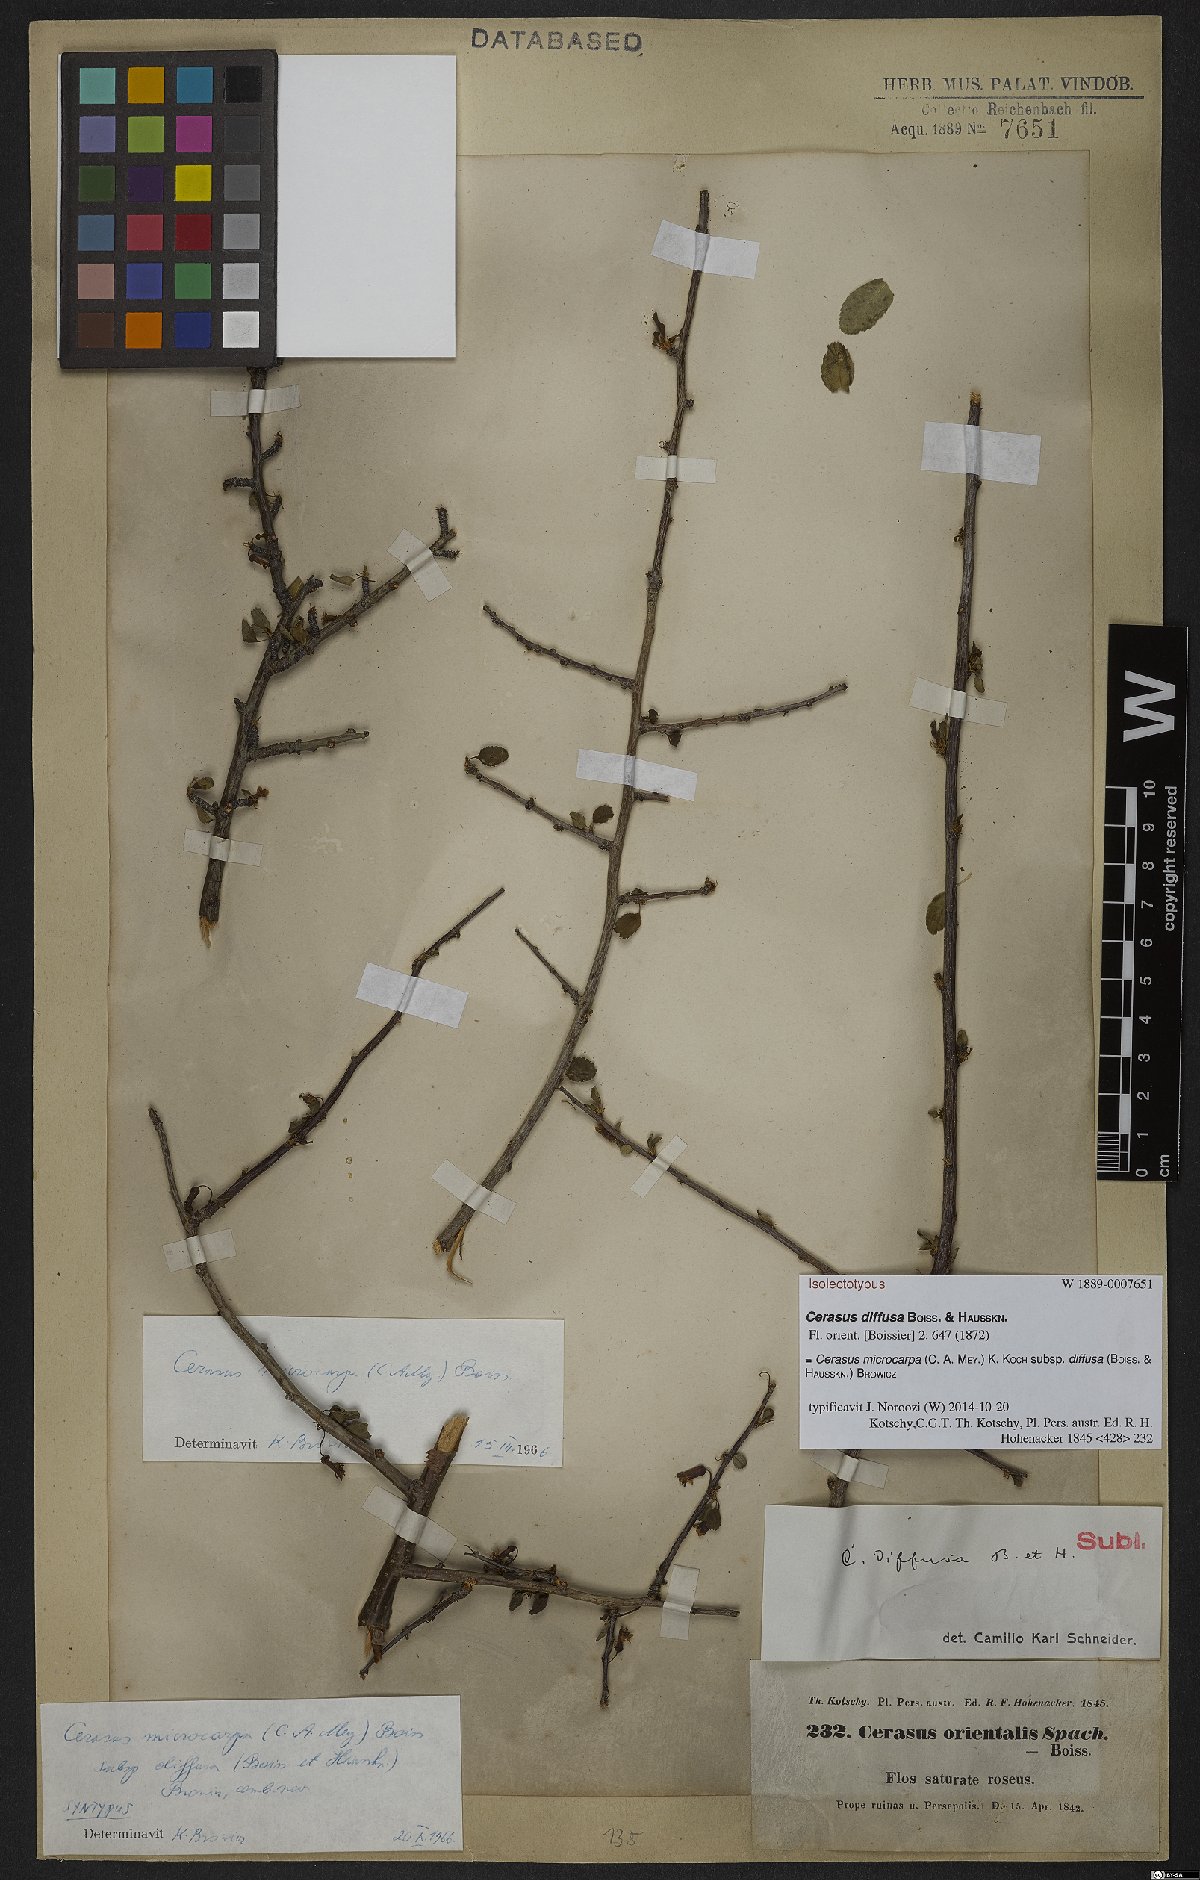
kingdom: Plantae
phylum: Tracheophyta
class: Magnoliopsida
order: Rosales
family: Rosaceae
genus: Prunus
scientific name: Prunus microcarpa
